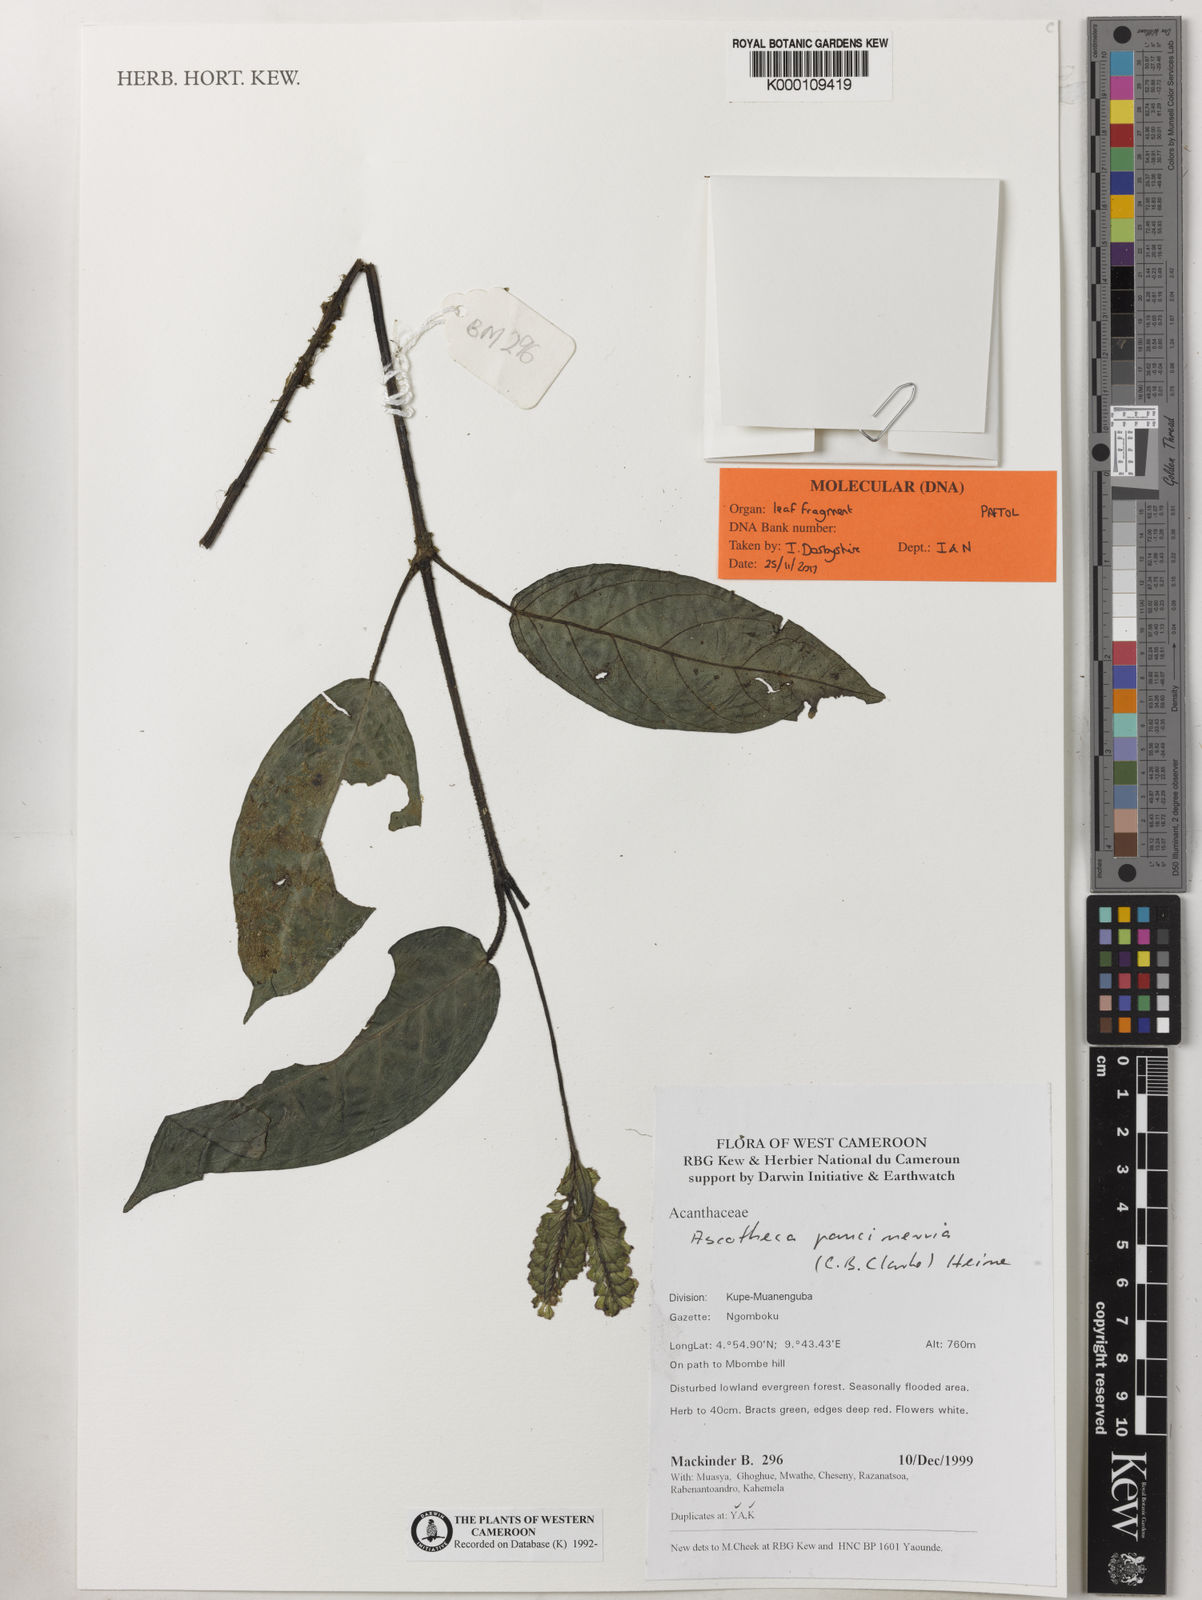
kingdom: Plantae
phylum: Tracheophyta
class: Magnoliopsida
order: Lamiales
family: Acanthaceae
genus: Ascotheca
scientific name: Ascotheca paucinervia
